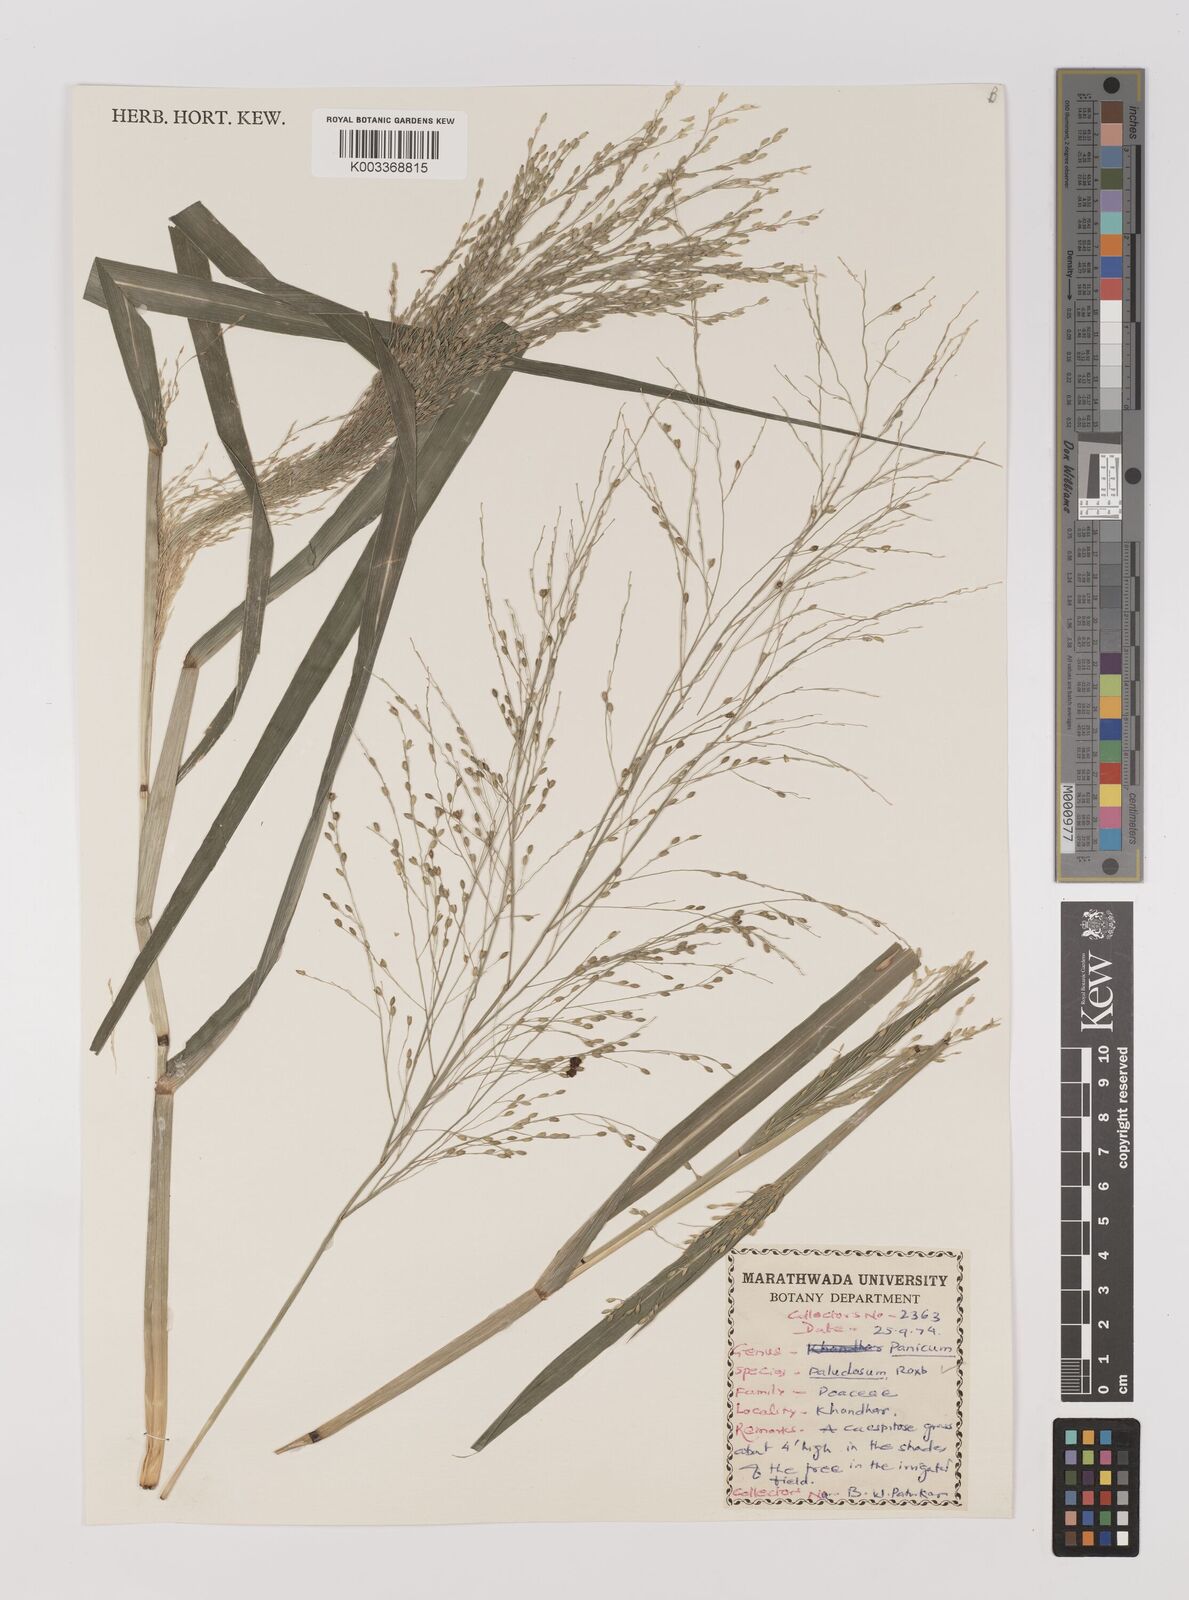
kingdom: Plantae
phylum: Tracheophyta
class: Liliopsida
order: Poales
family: Poaceae
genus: Louisiella
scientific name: Louisiella paludosa
